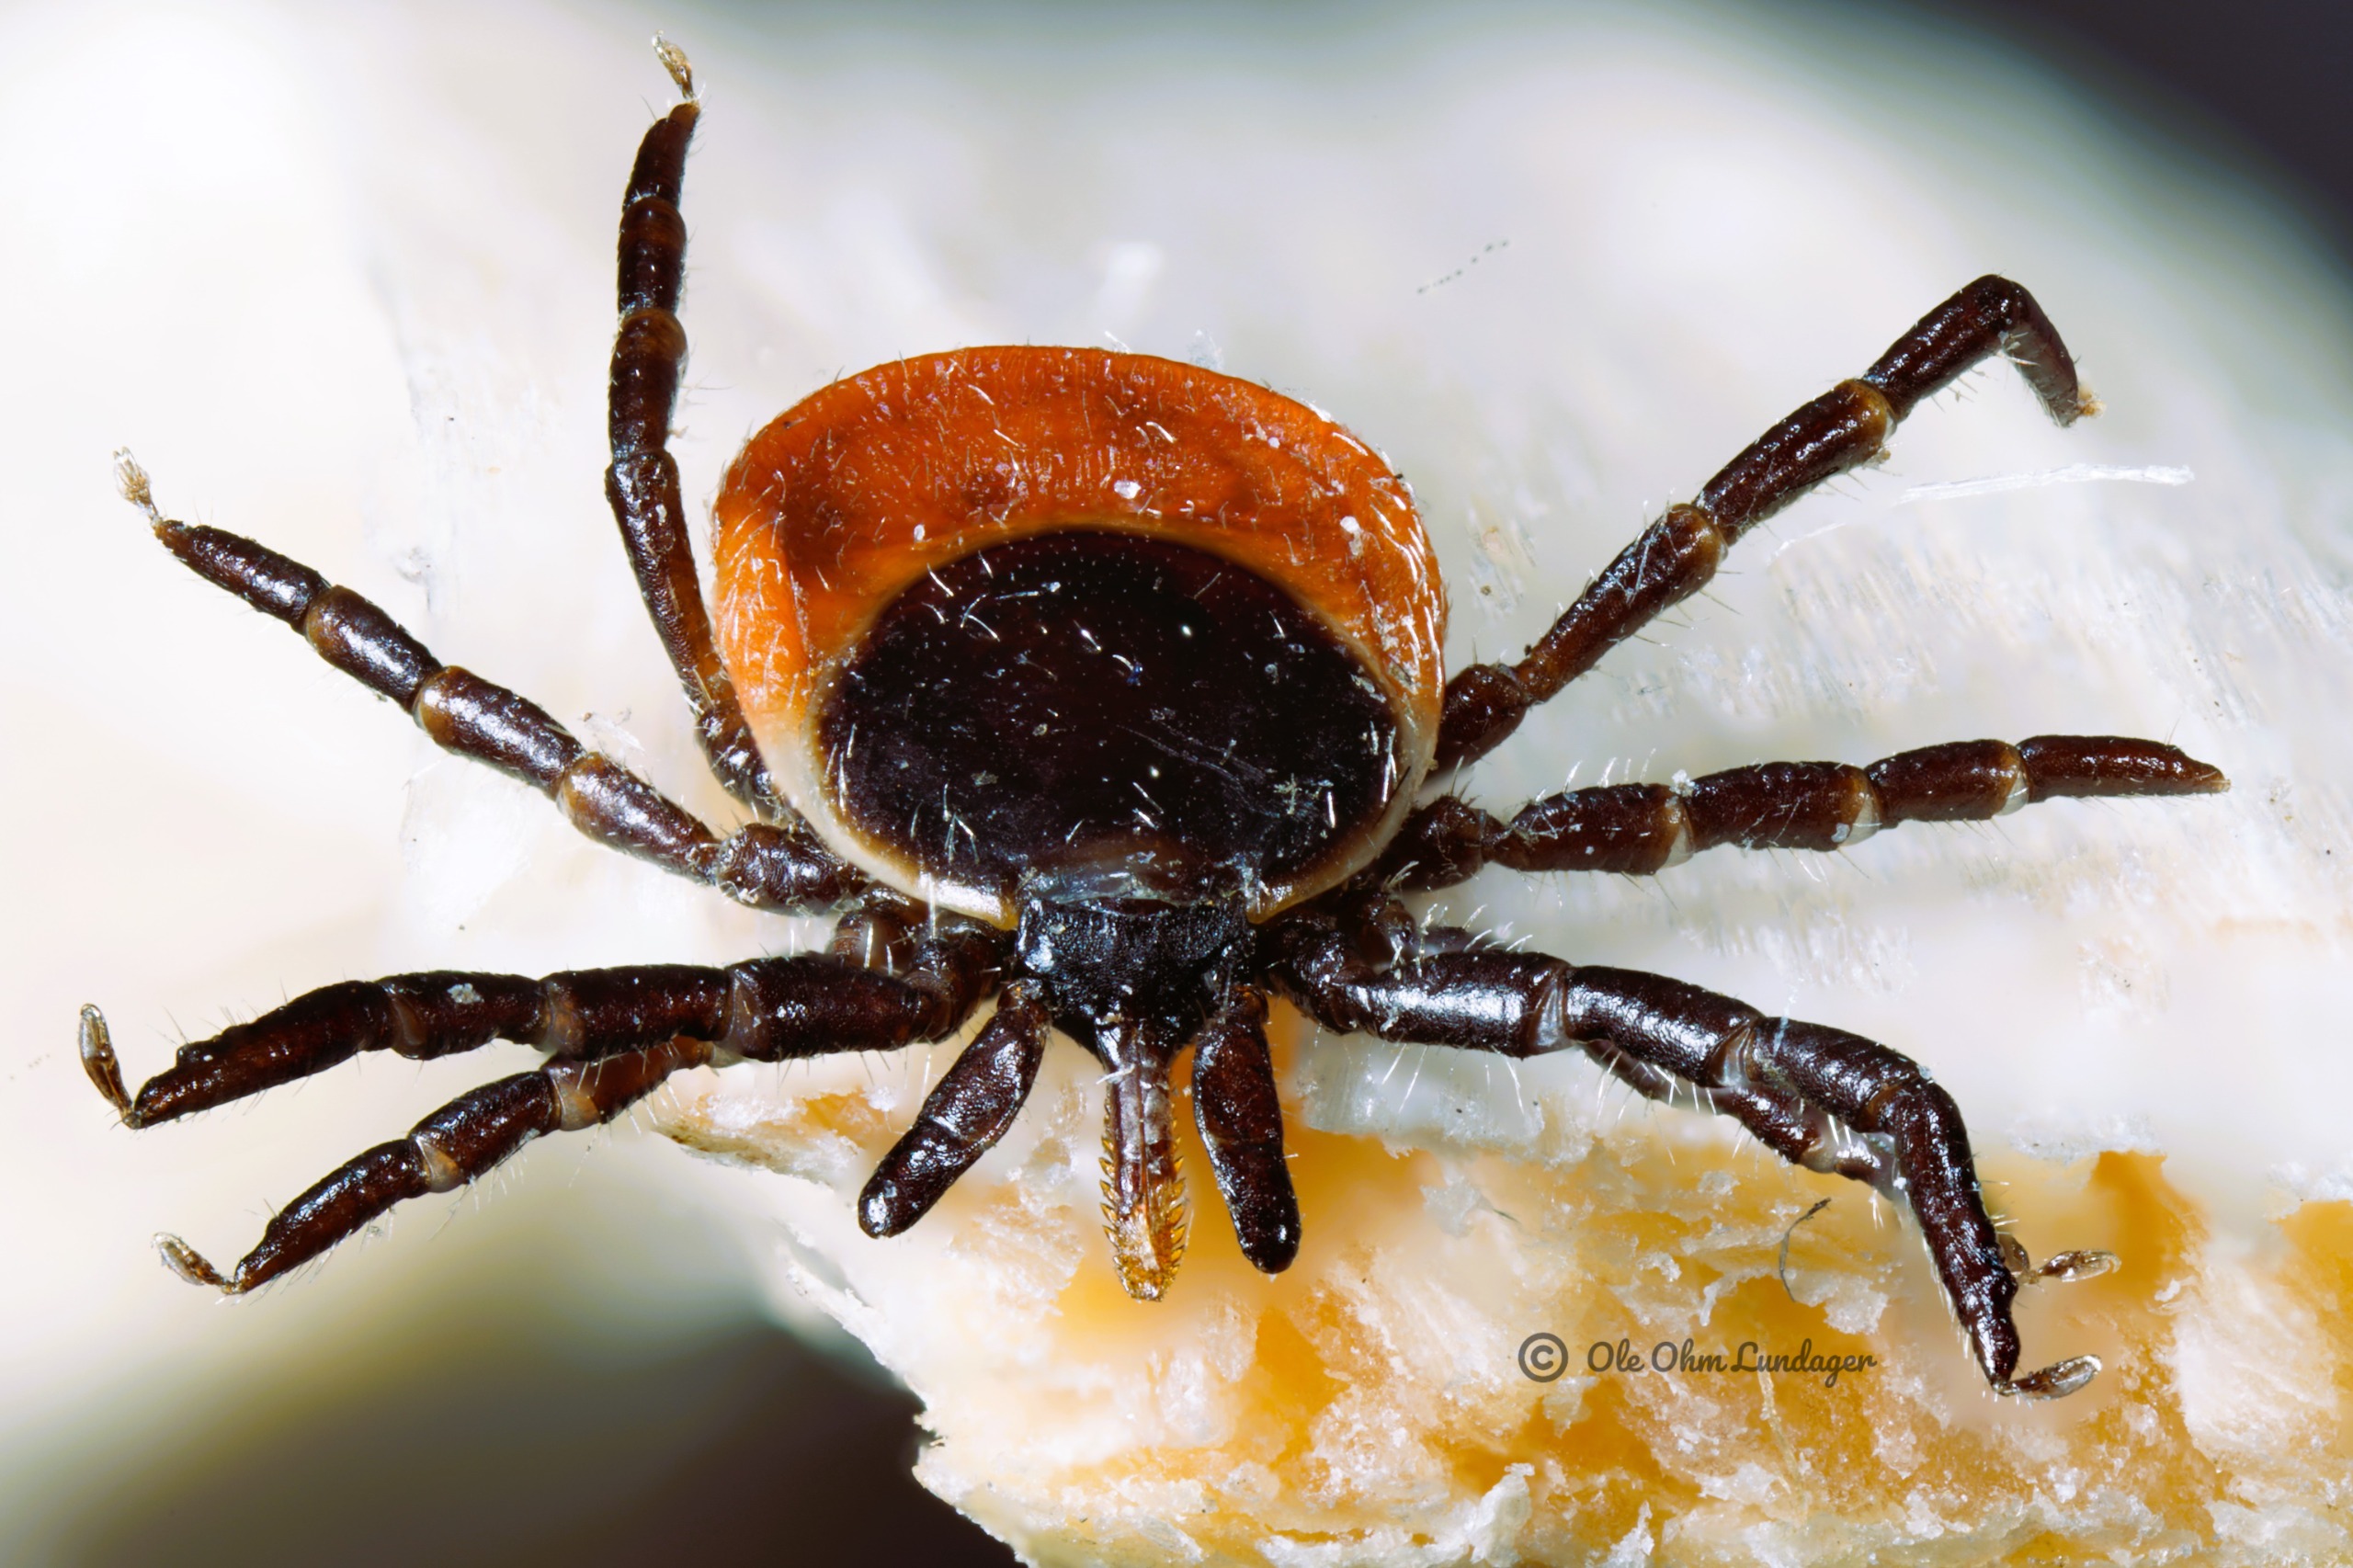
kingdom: Animalia
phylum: Arthropoda
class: Arachnida
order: Ixodida
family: Ixodidae
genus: Ixodes
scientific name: Ixodes ricinus
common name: Skovflåt
